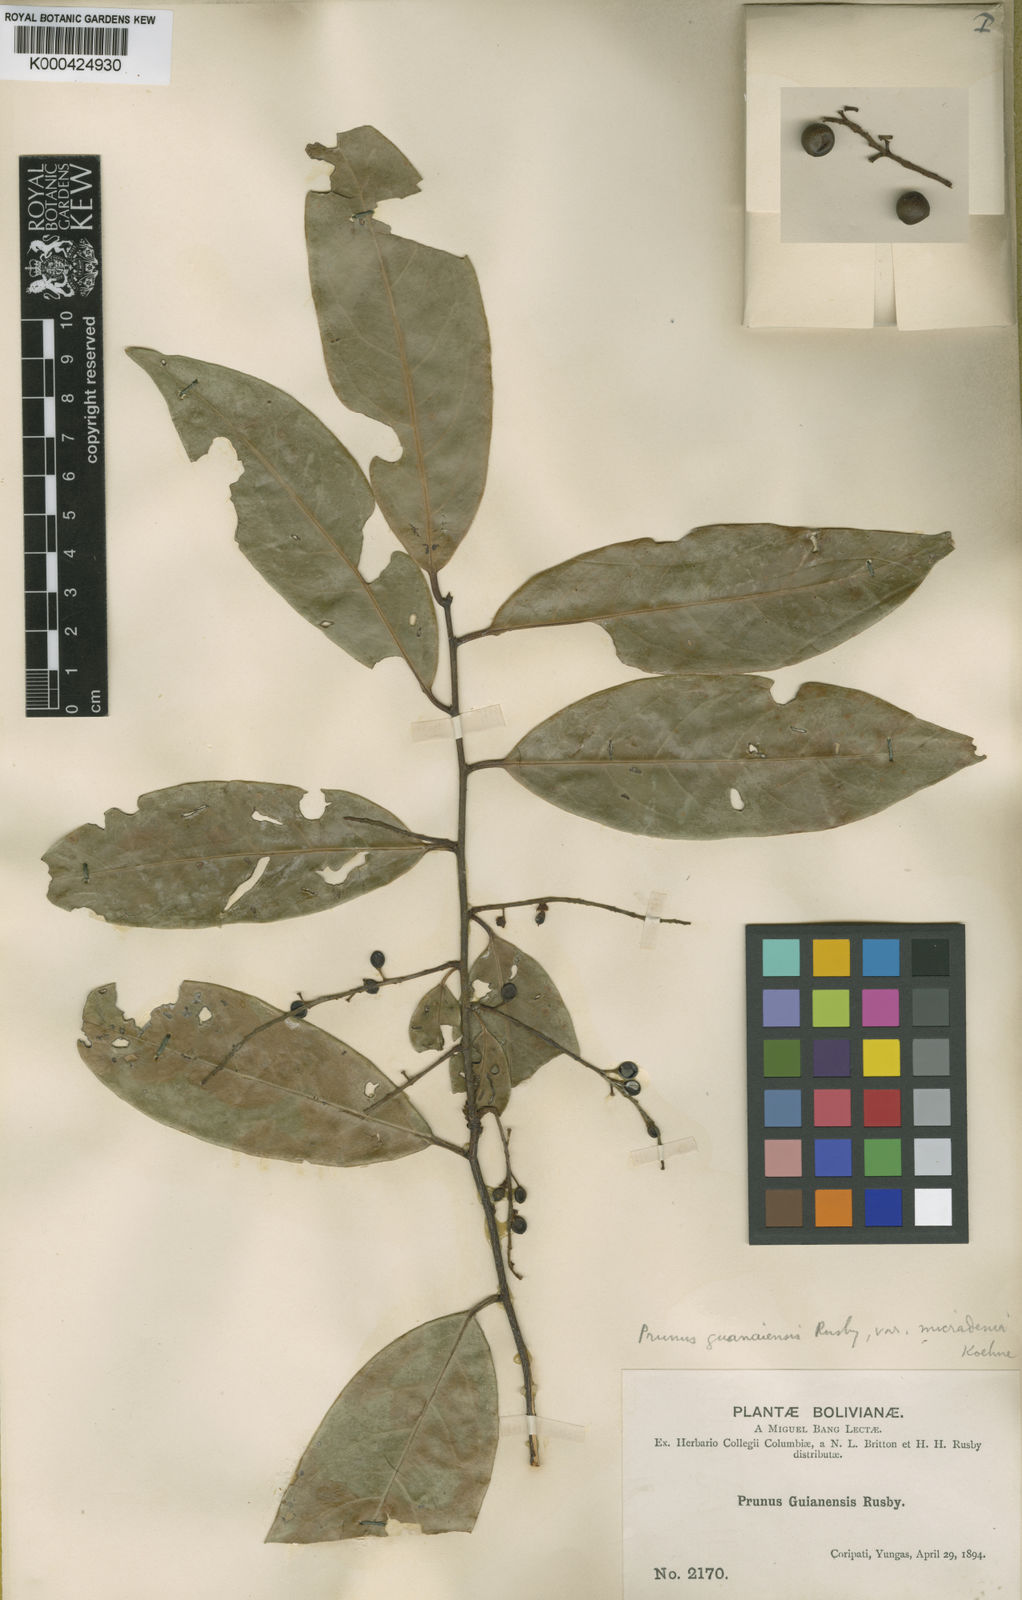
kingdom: Plantae
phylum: Tracheophyta
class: Magnoliopsida
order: Rosales
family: Rosaceae
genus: Prunus
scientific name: Prunus guanaiensis
